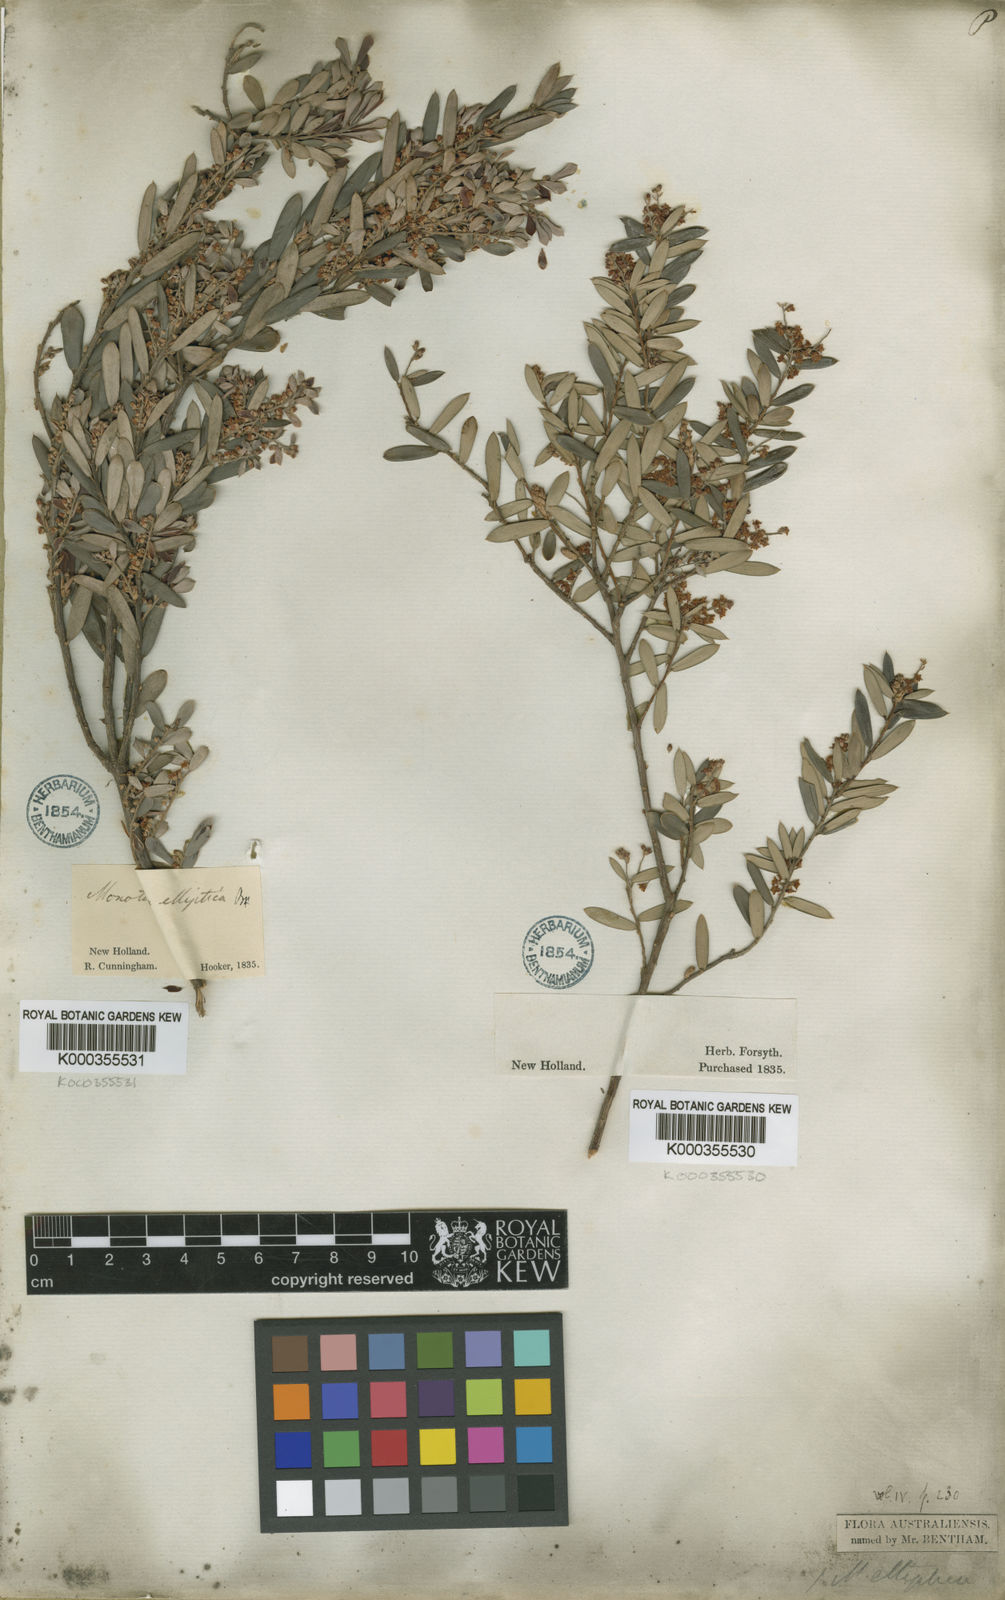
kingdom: Plantae
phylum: Tracheophyta
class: Magnoliopsida
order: Ericales
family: Ericaceae
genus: Monotoca
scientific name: Monotoca elliptica
